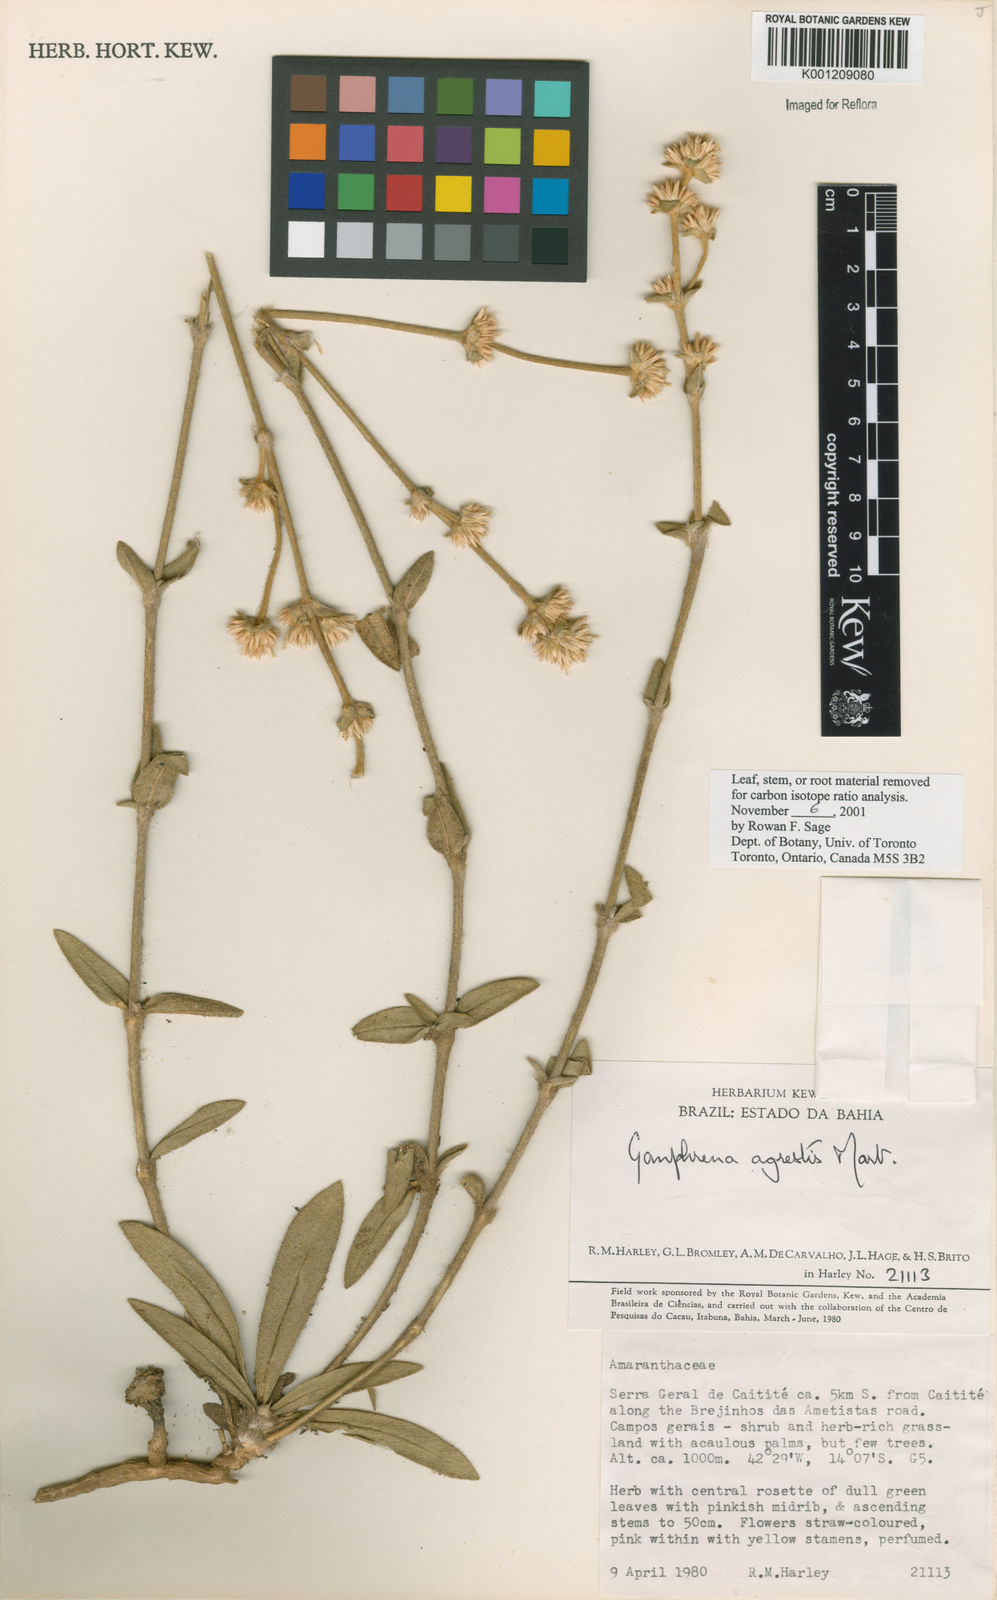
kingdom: Plantae
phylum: Tracheophyta
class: Magnoliopsida
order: Caryophyllales
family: Amaranthaceae
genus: Gomphrena
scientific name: Gomphrena agrestis
